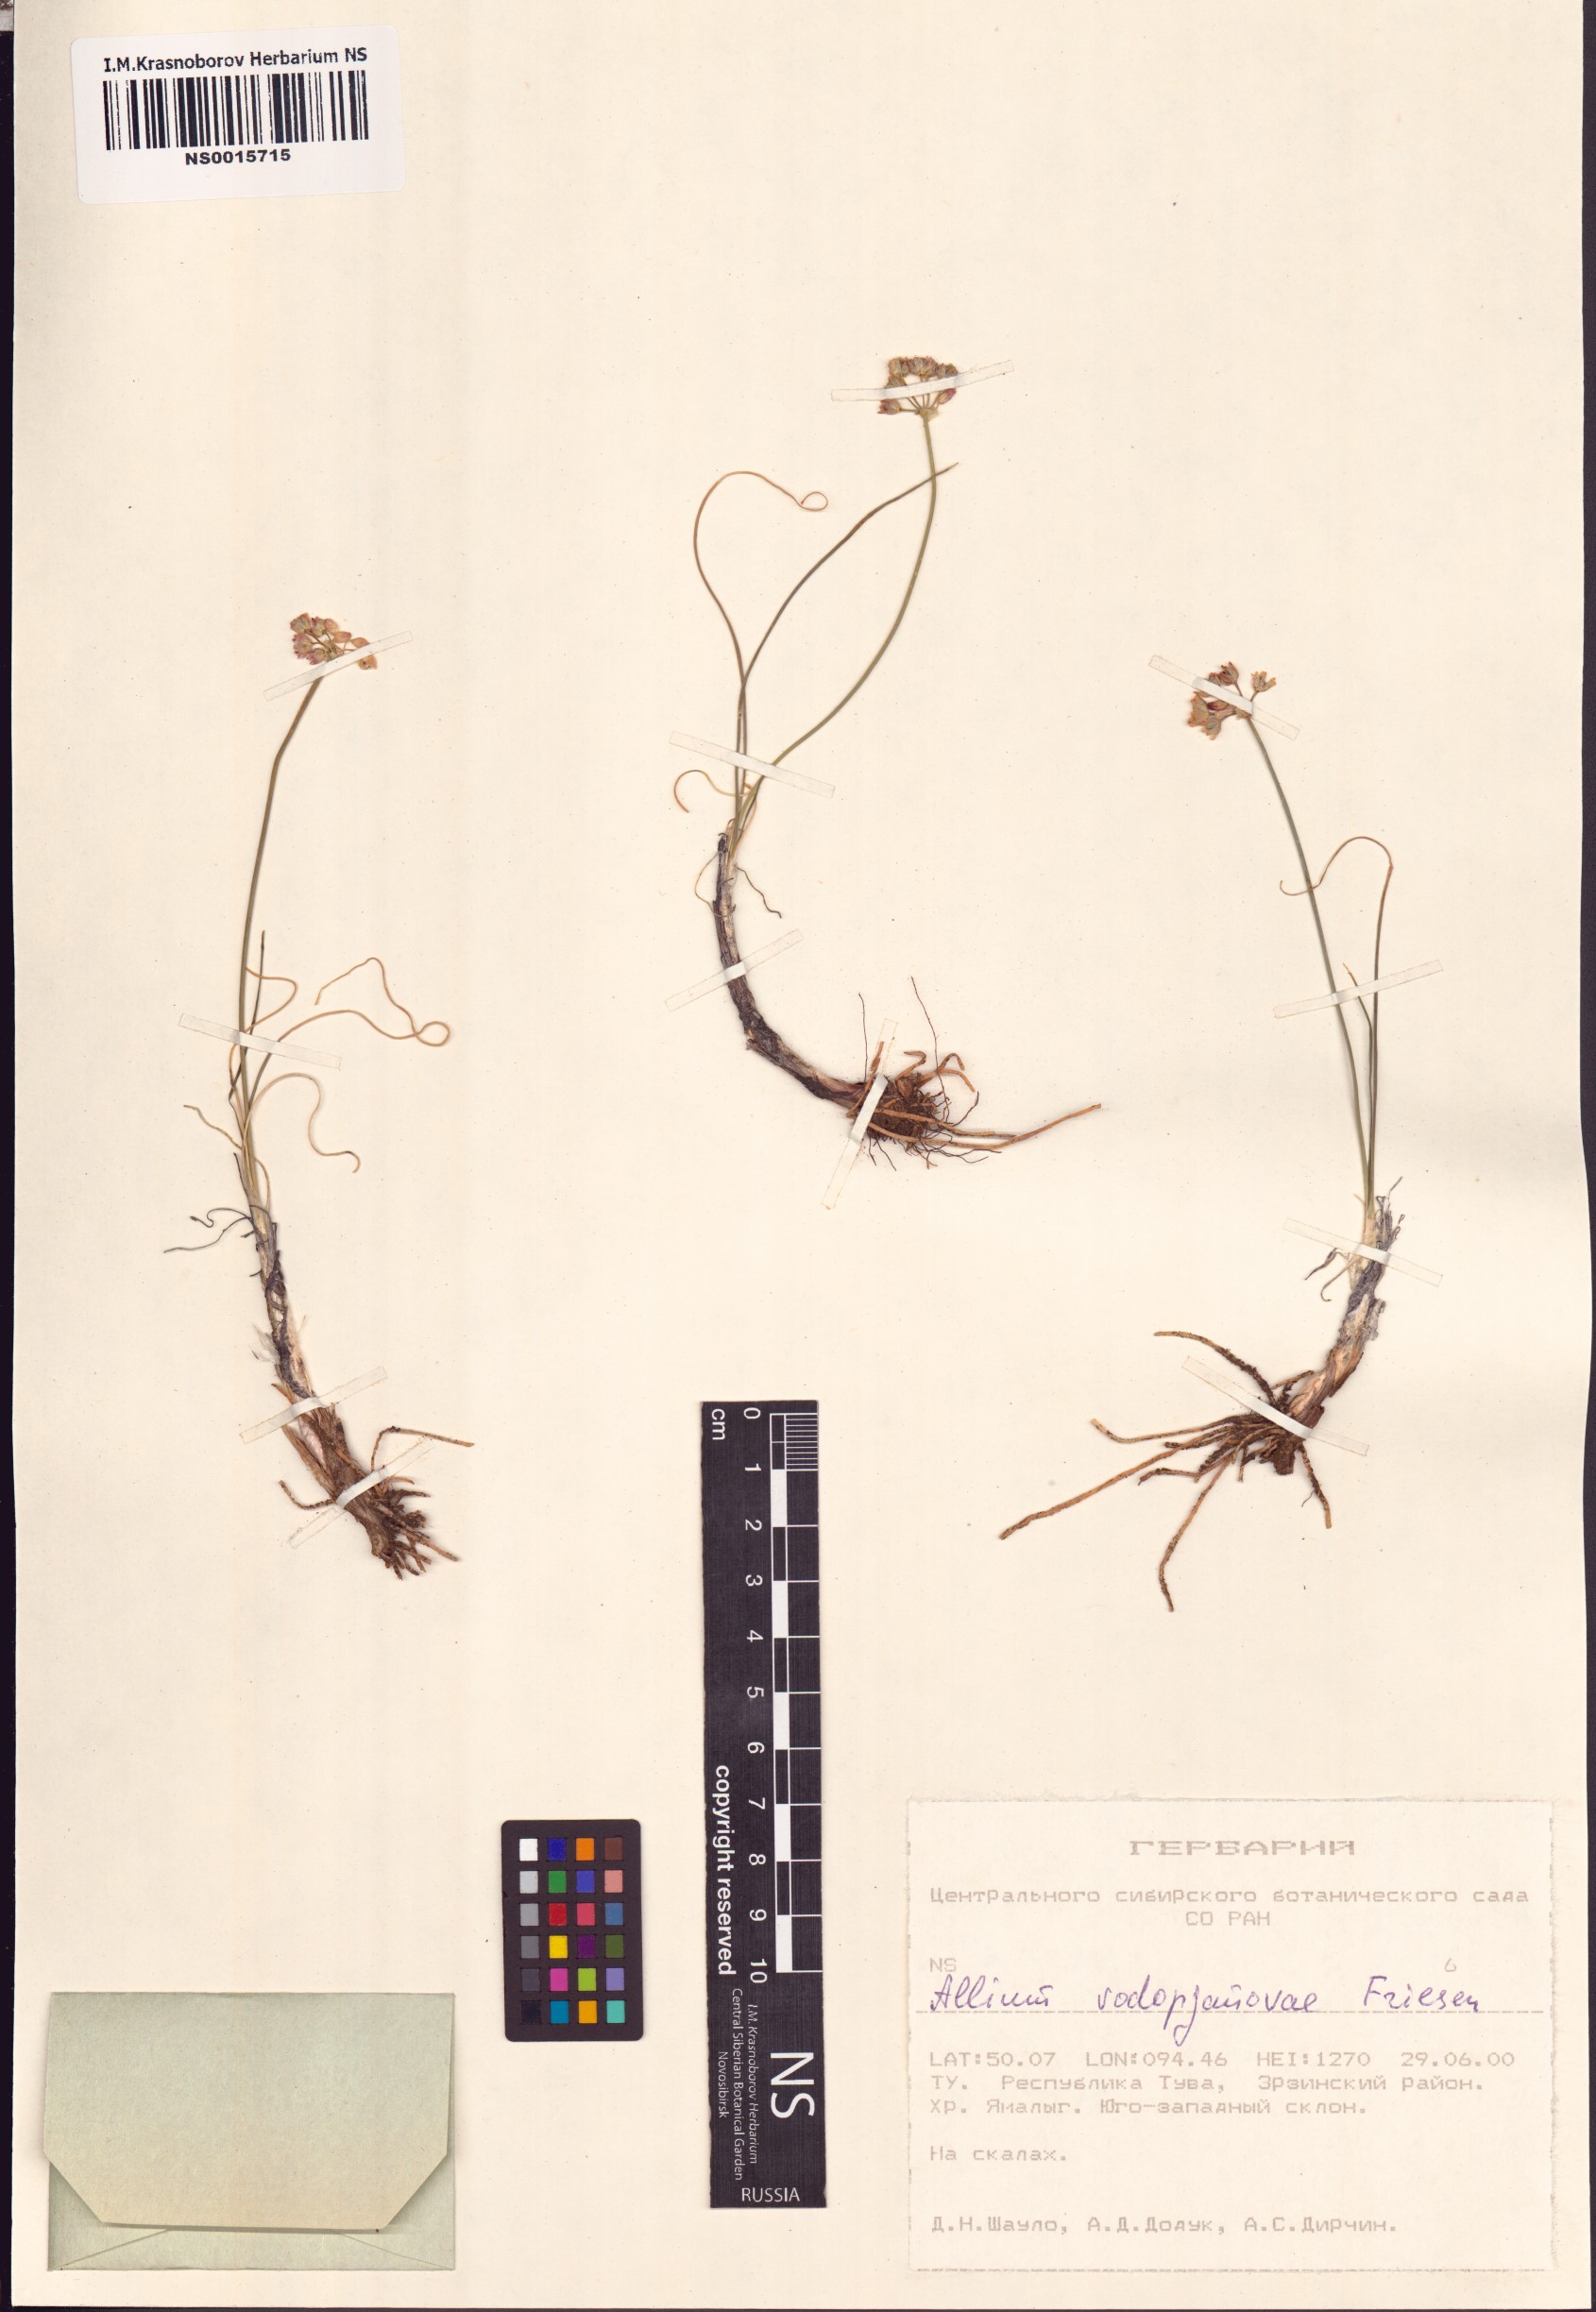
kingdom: Plantae
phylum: Tracheophyta
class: Liliopsida
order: Asparagales
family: Amaryllidaceae
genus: Allium
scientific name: Allium vodopjanovae
